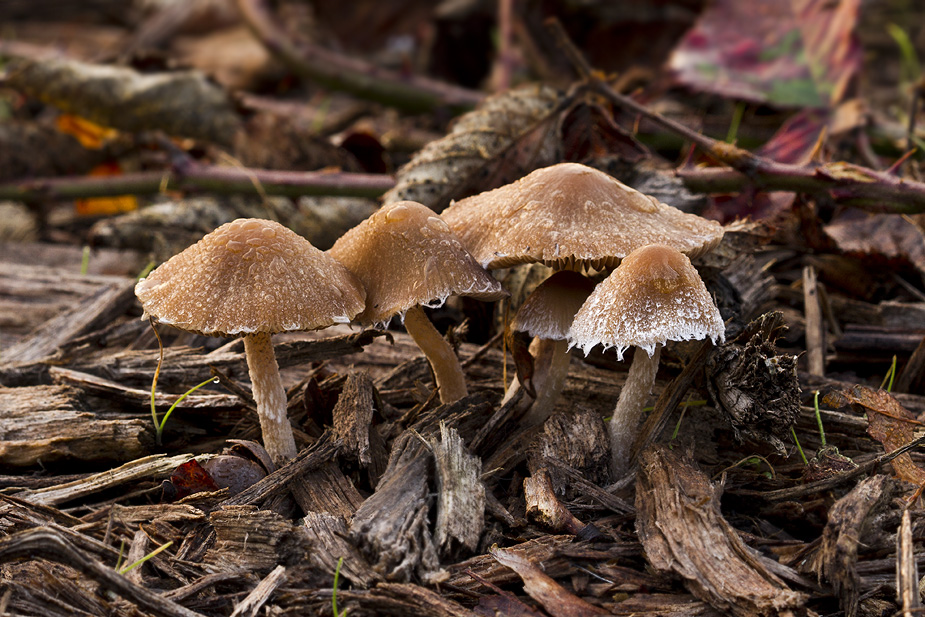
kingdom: Fungi
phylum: Basidiomycota
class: Agaricomycetes
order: Agaricales
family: Psathyrellaceae
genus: Psathyrella
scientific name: Psathyrella impexa
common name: rødmende mørkhat
